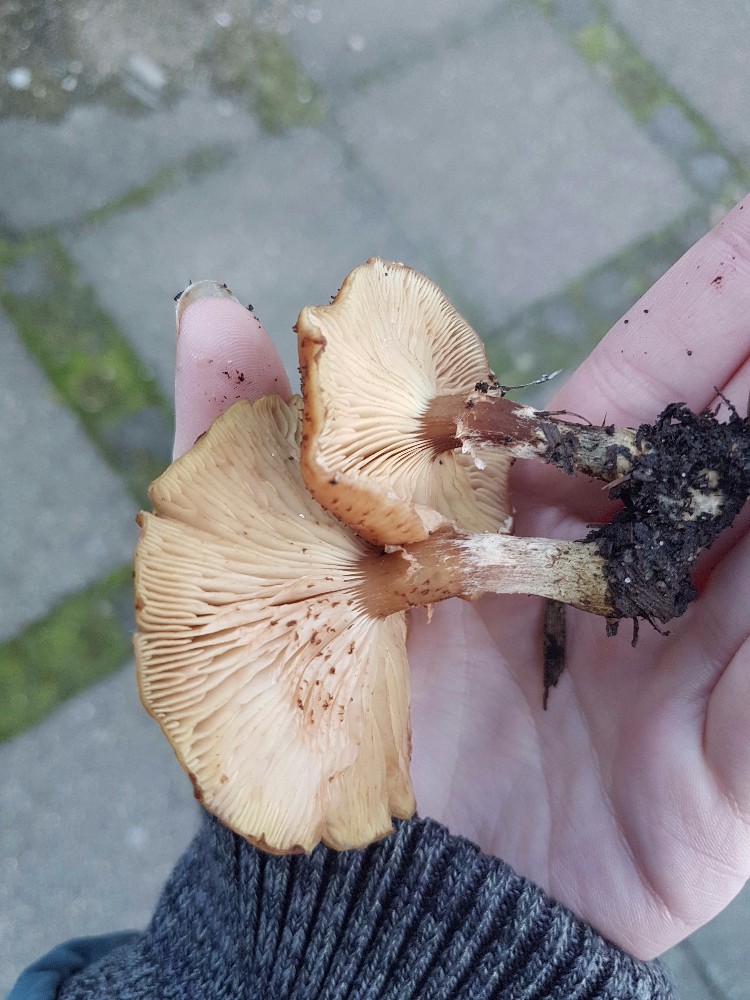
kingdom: Fungi
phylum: Basidiomycota
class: Agaricomycetes
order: Agaricales
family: Physalacriaceae
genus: Armillaria
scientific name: Armillaria lutea
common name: køllestokket honningsvamp
